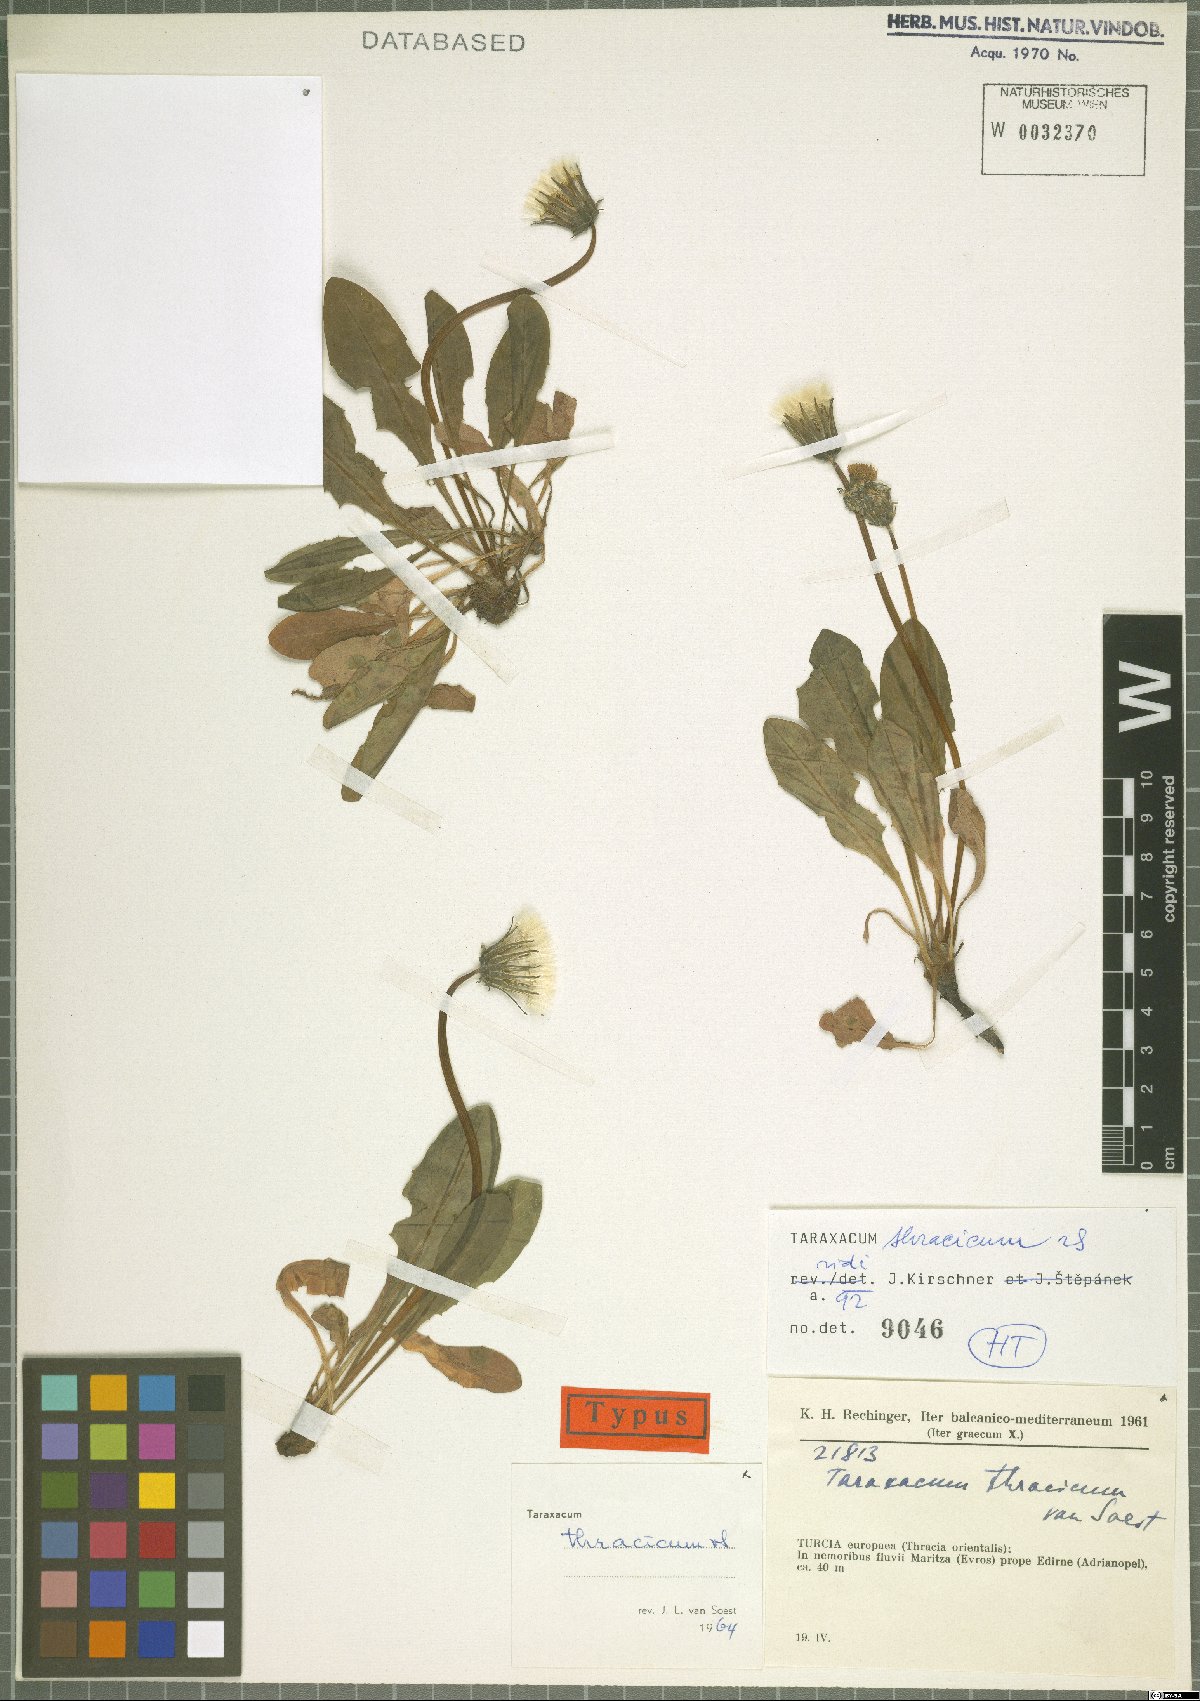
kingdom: Plantae
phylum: Tracheophyta
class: Magnoliopsida
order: Asterales
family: Asteraceae
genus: Taraxacum
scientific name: Taraxacum thracicum
